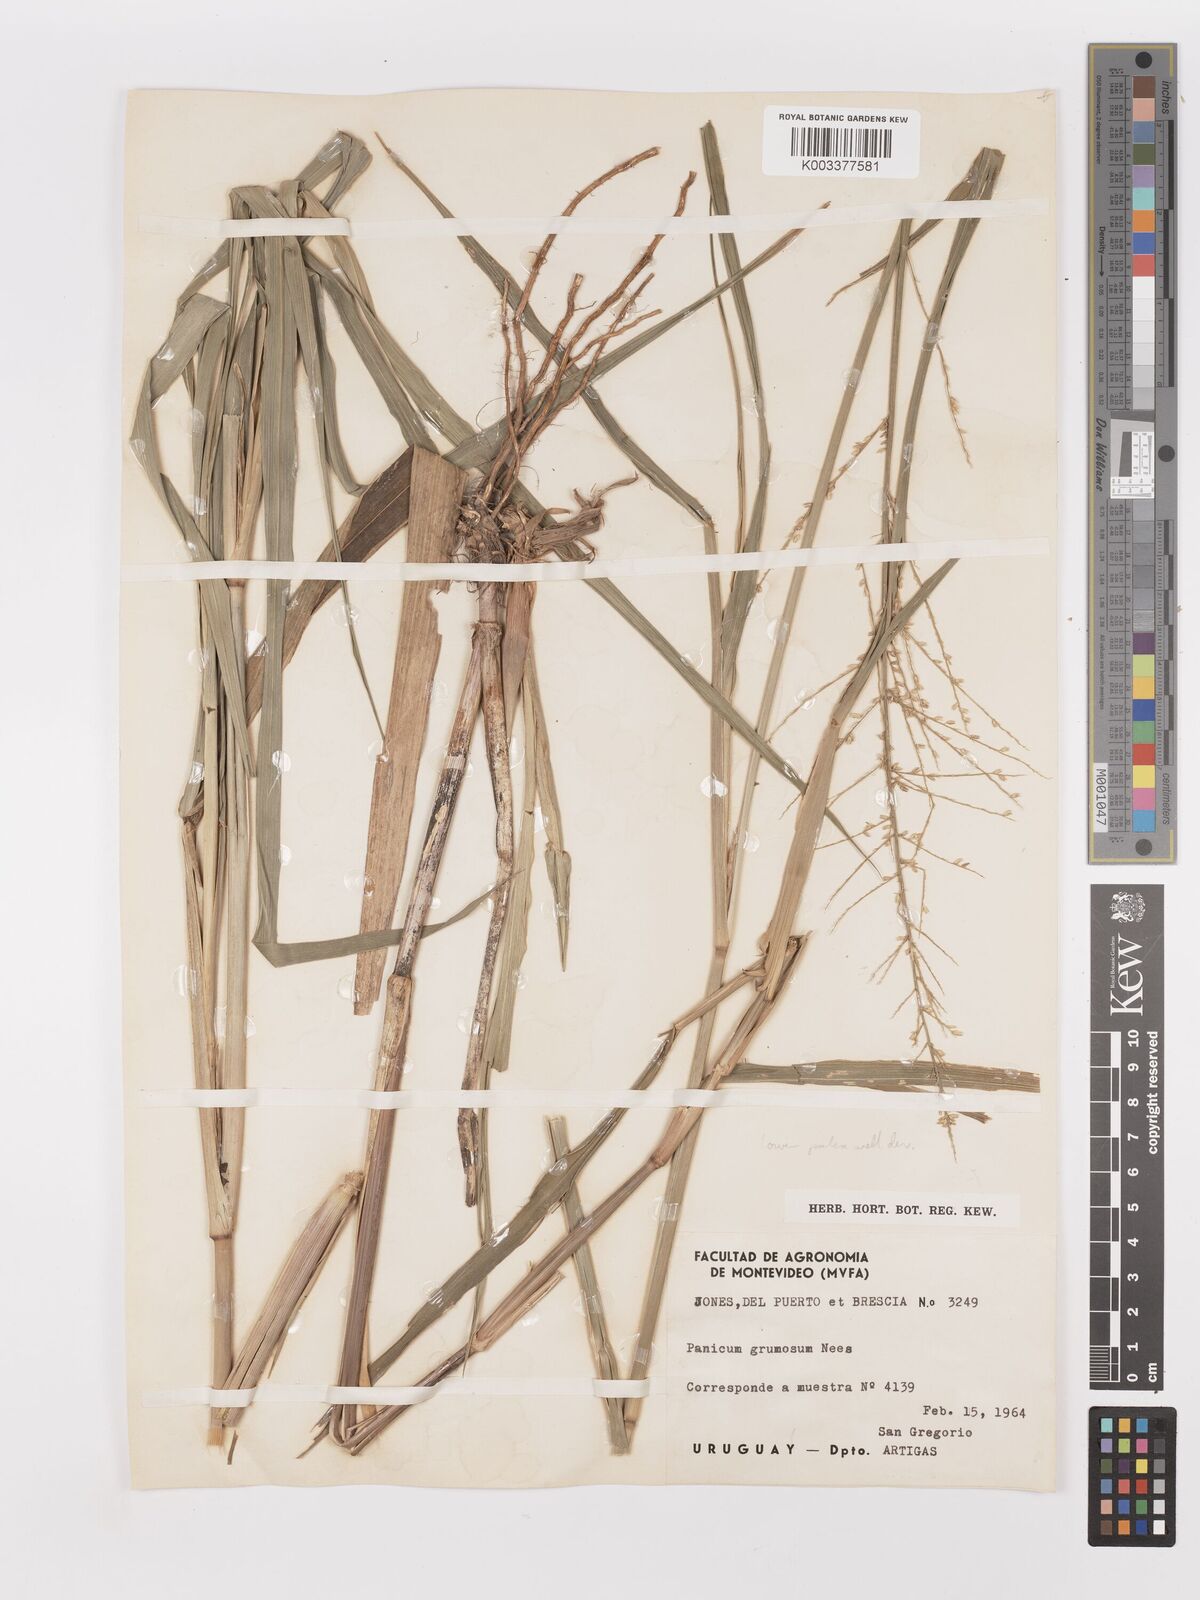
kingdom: Plantae
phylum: Tracheophyta
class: Liliopsida
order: Poales
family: Poaceae
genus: Urochloa
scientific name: Urochloa reptans
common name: Sprawling signalgrass
